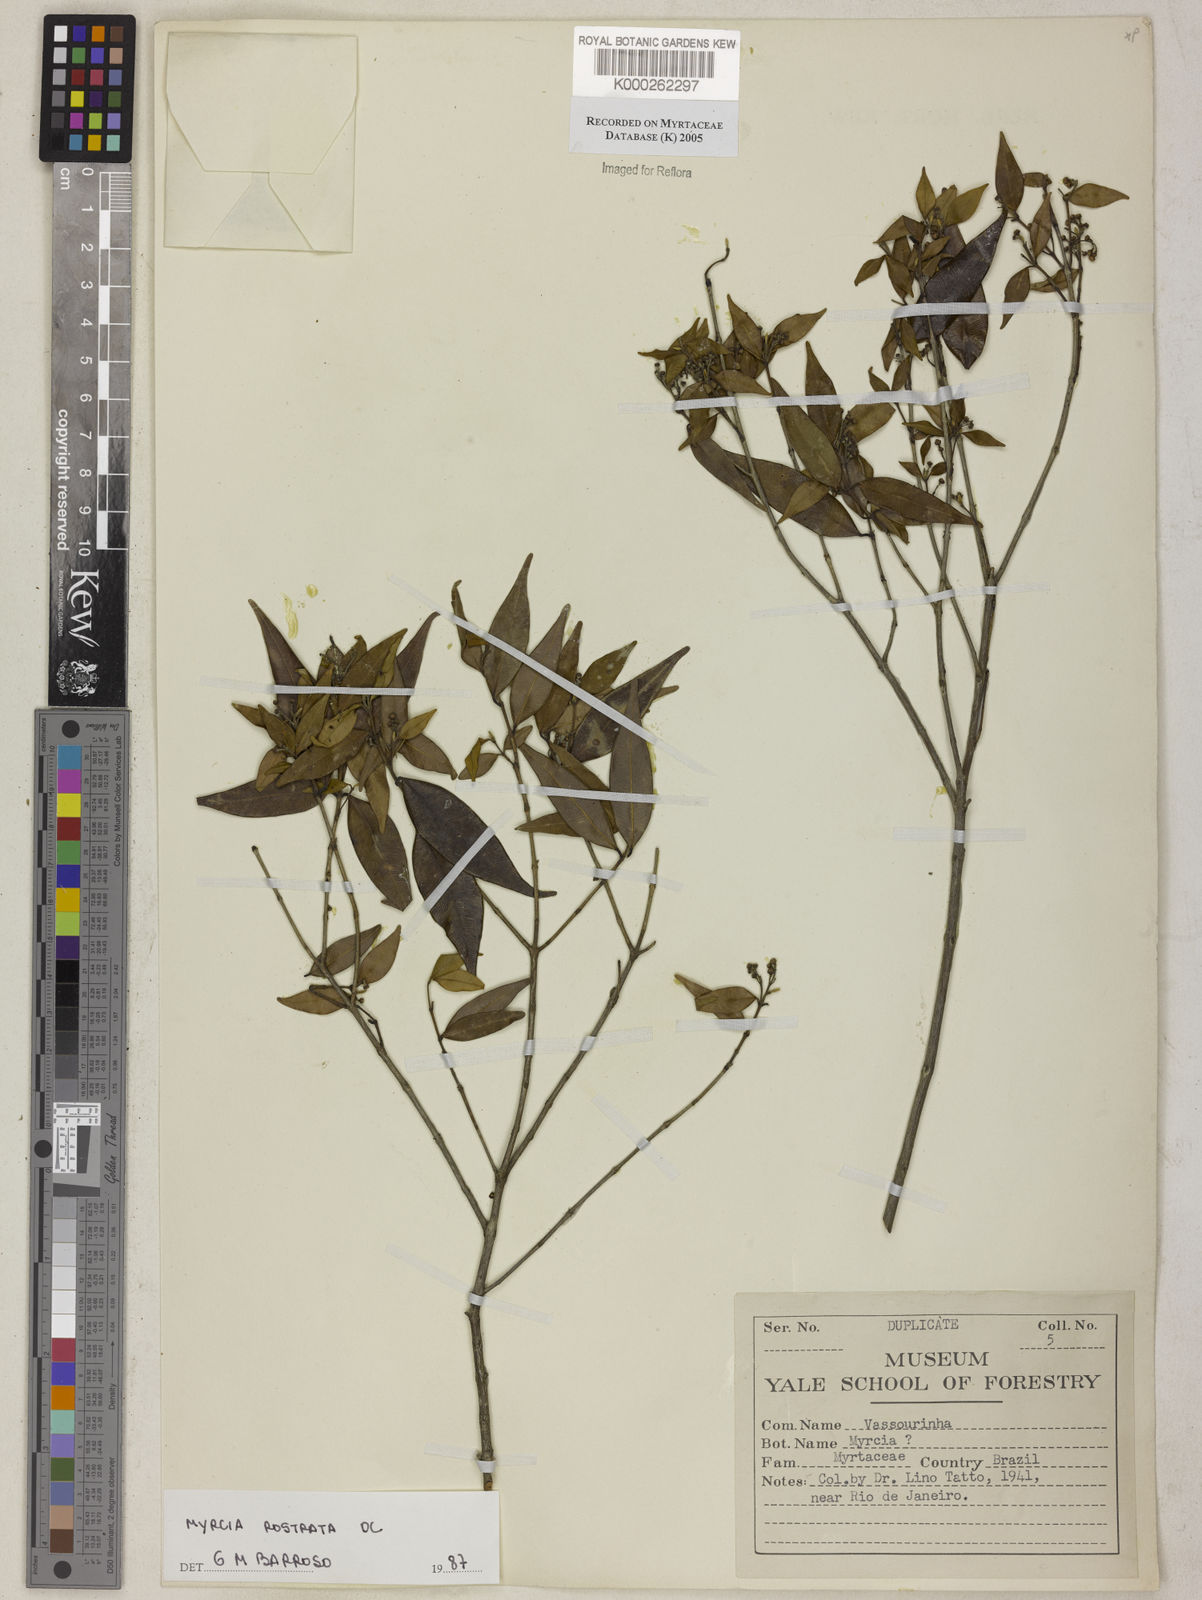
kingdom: Plantae
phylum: Tracheophyta
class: Magnoliopsida
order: Myrtales
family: Myrtaceae
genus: Myrcia
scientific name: Myrcia splendens
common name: Surinam cherry
